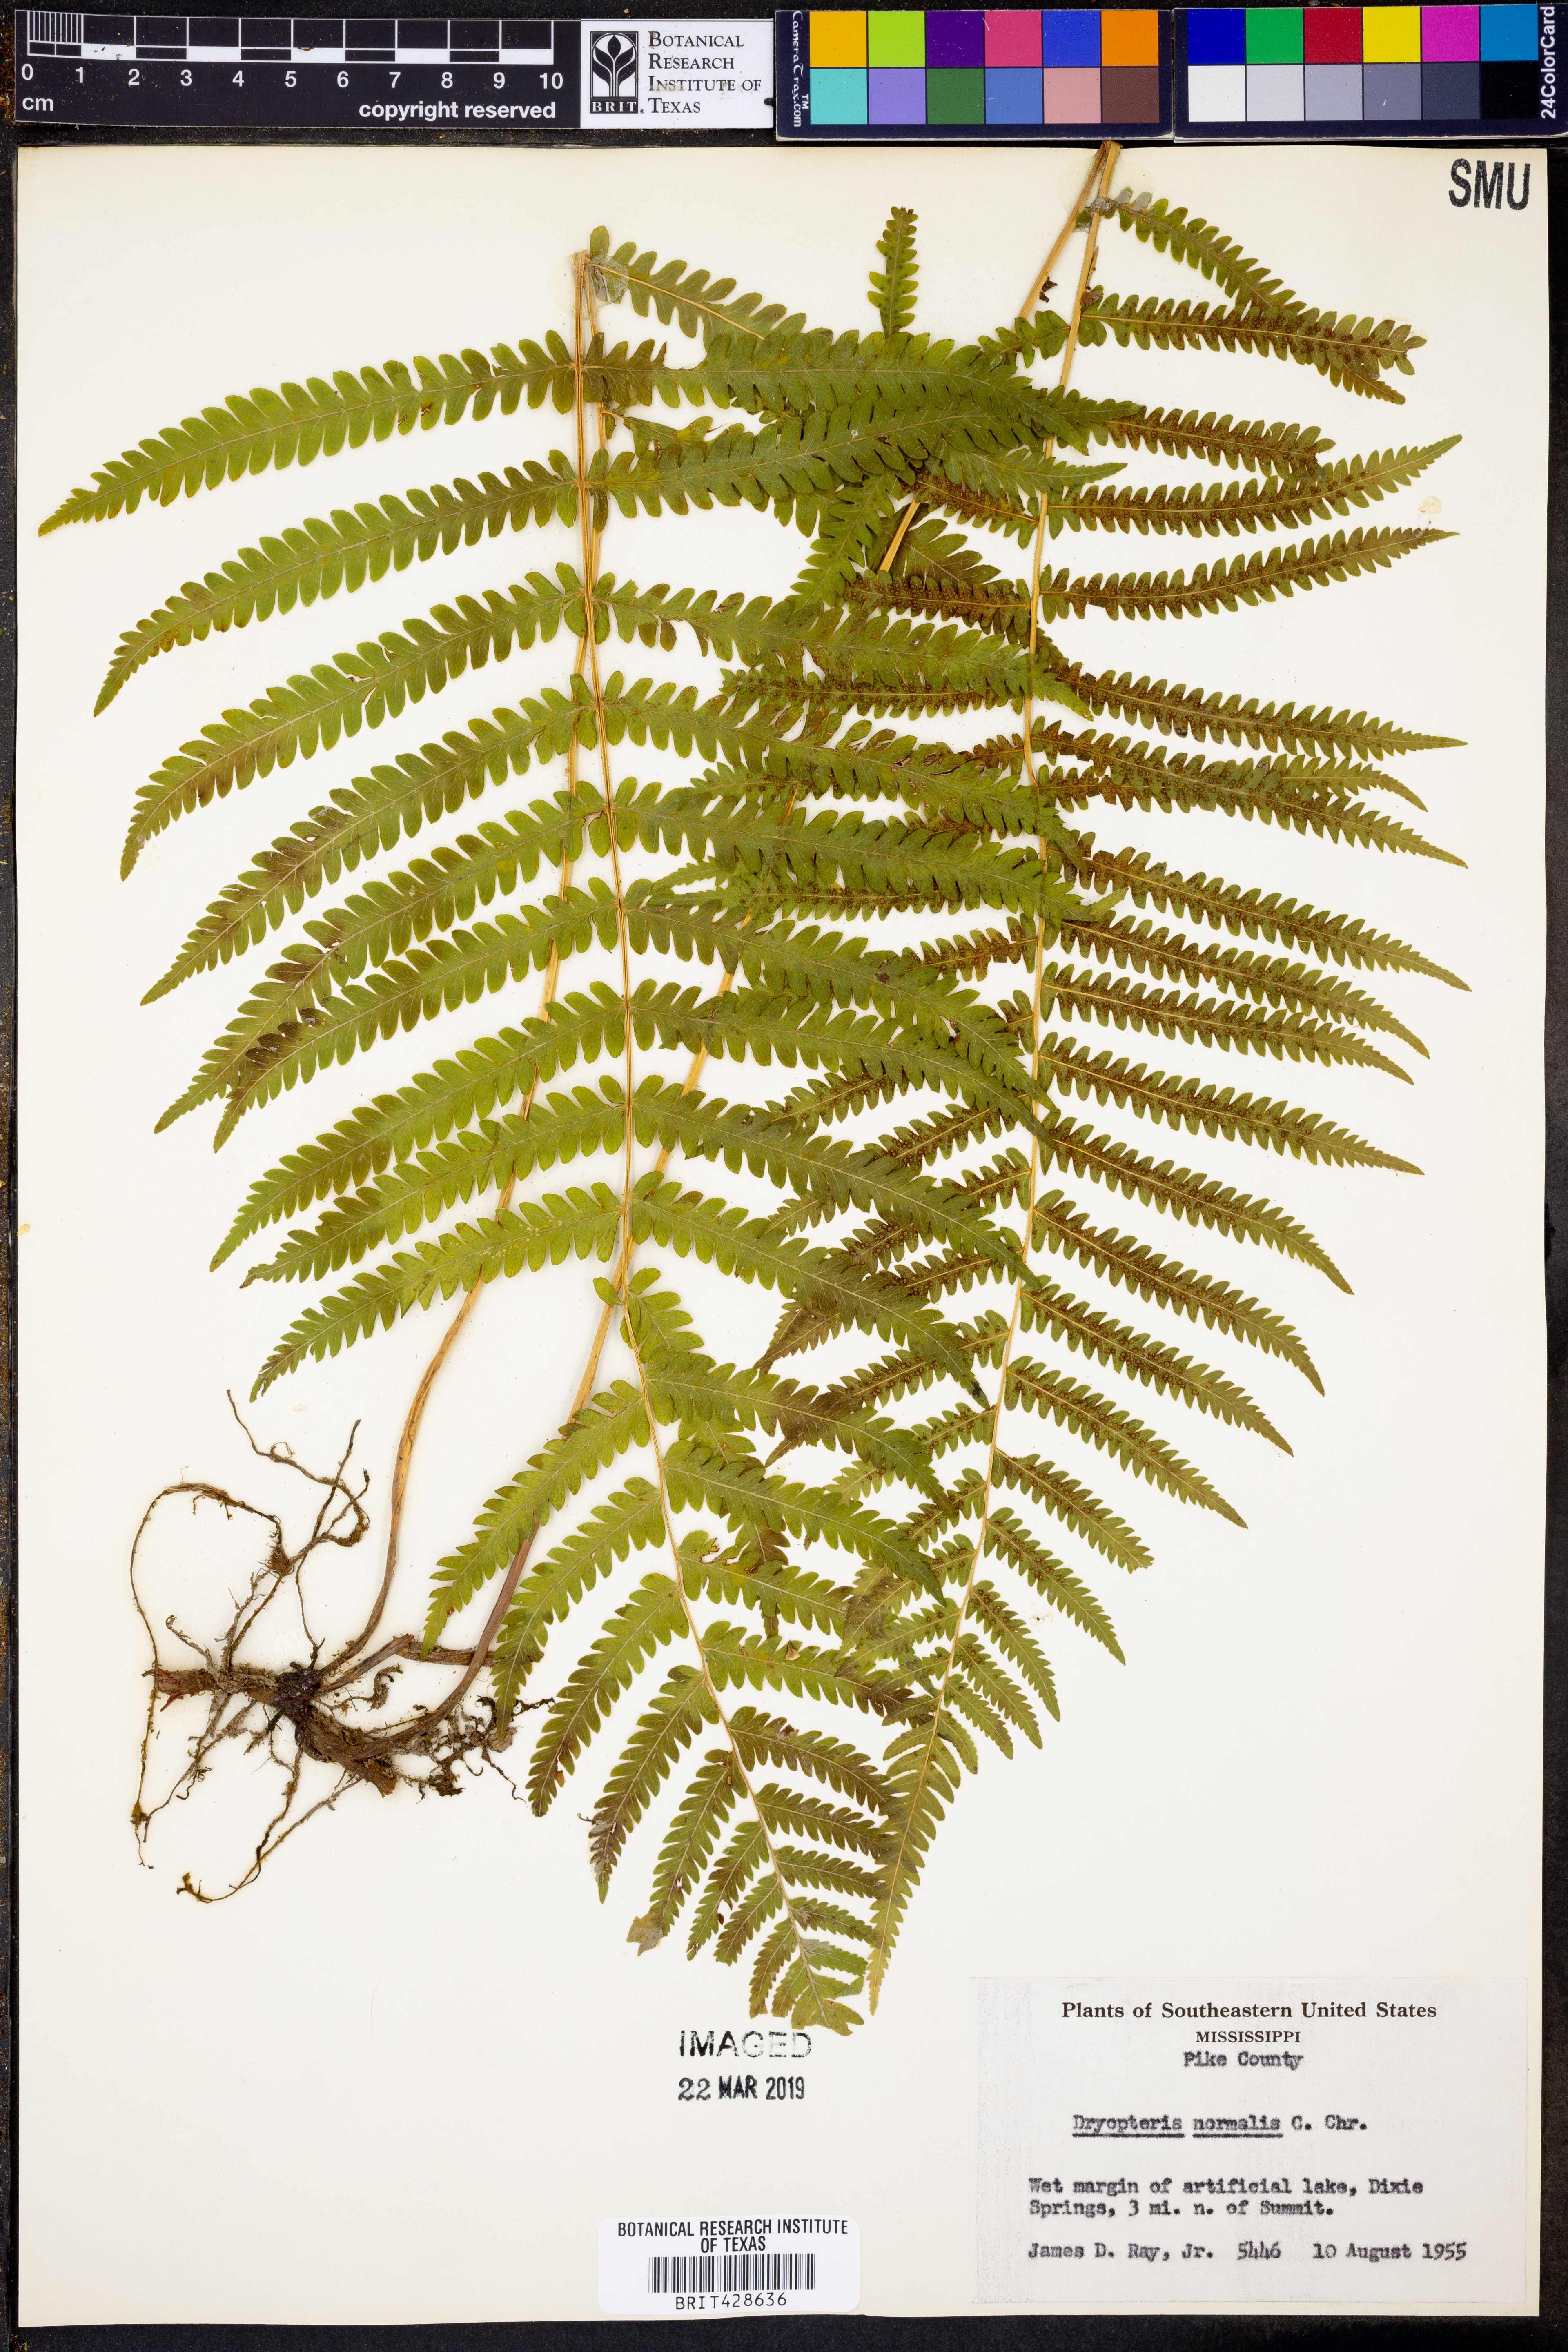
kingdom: Plantae
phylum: Tracheophyta
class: Polypodiopsida
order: Polypodiales
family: Thelypteridaceae
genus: Pelazoneuron
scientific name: Pelazoneuron kunthii
